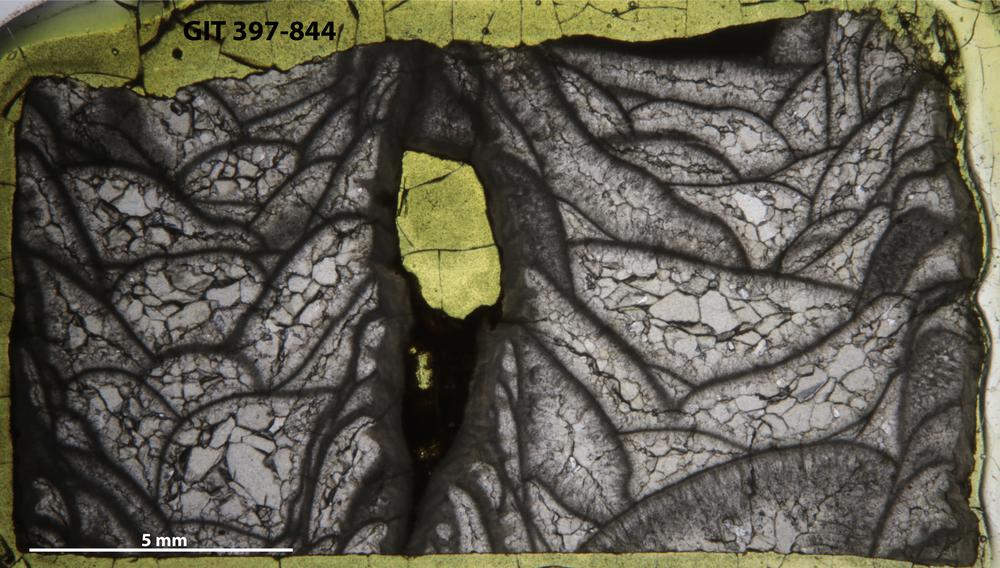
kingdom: Animalia
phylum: Cnidaria
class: Anthozoa
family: Cystiphyllidae
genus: Microplasma
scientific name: Microplasma
